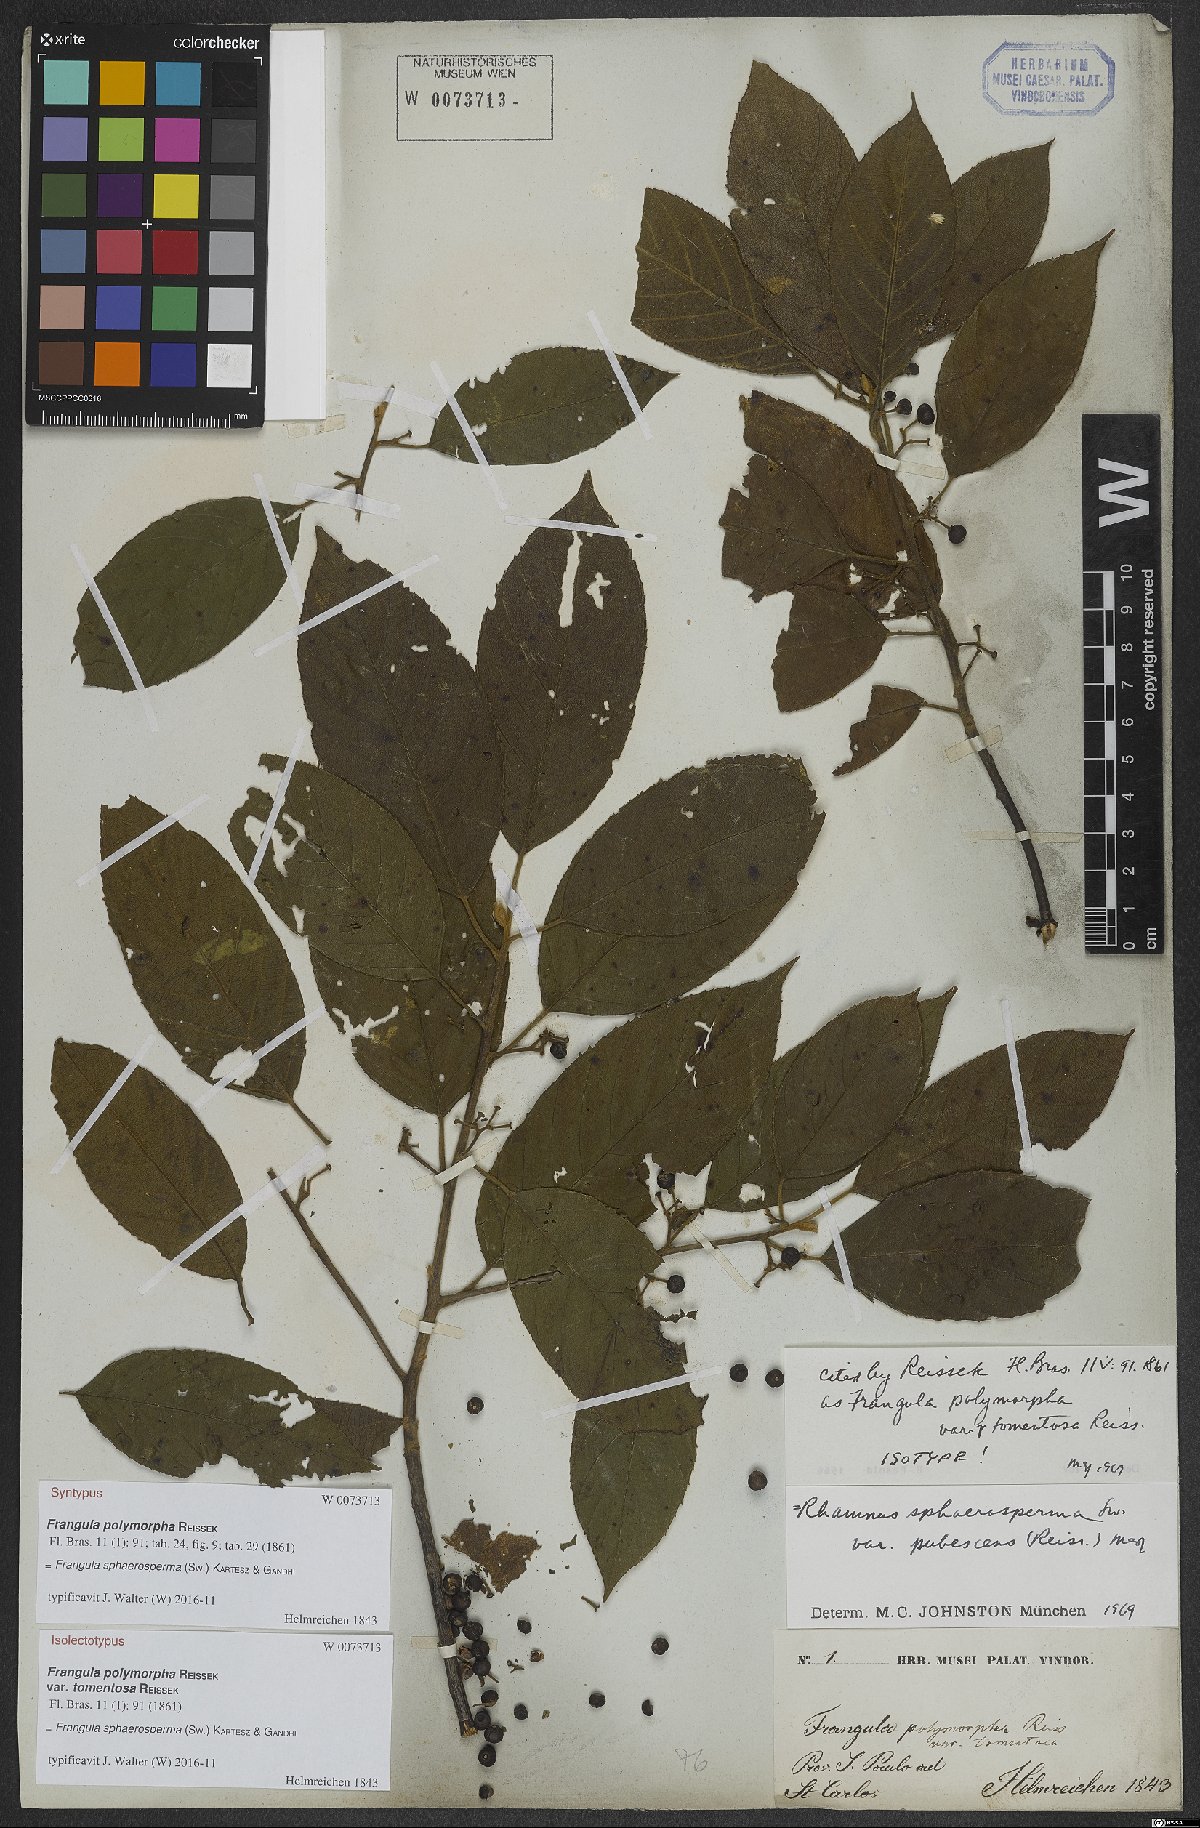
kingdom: Plantae
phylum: Tracheophyta
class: Magnoliopsida
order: Rosales
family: Rhamnaceae
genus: Frangula
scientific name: Frangula sphaerosperma
